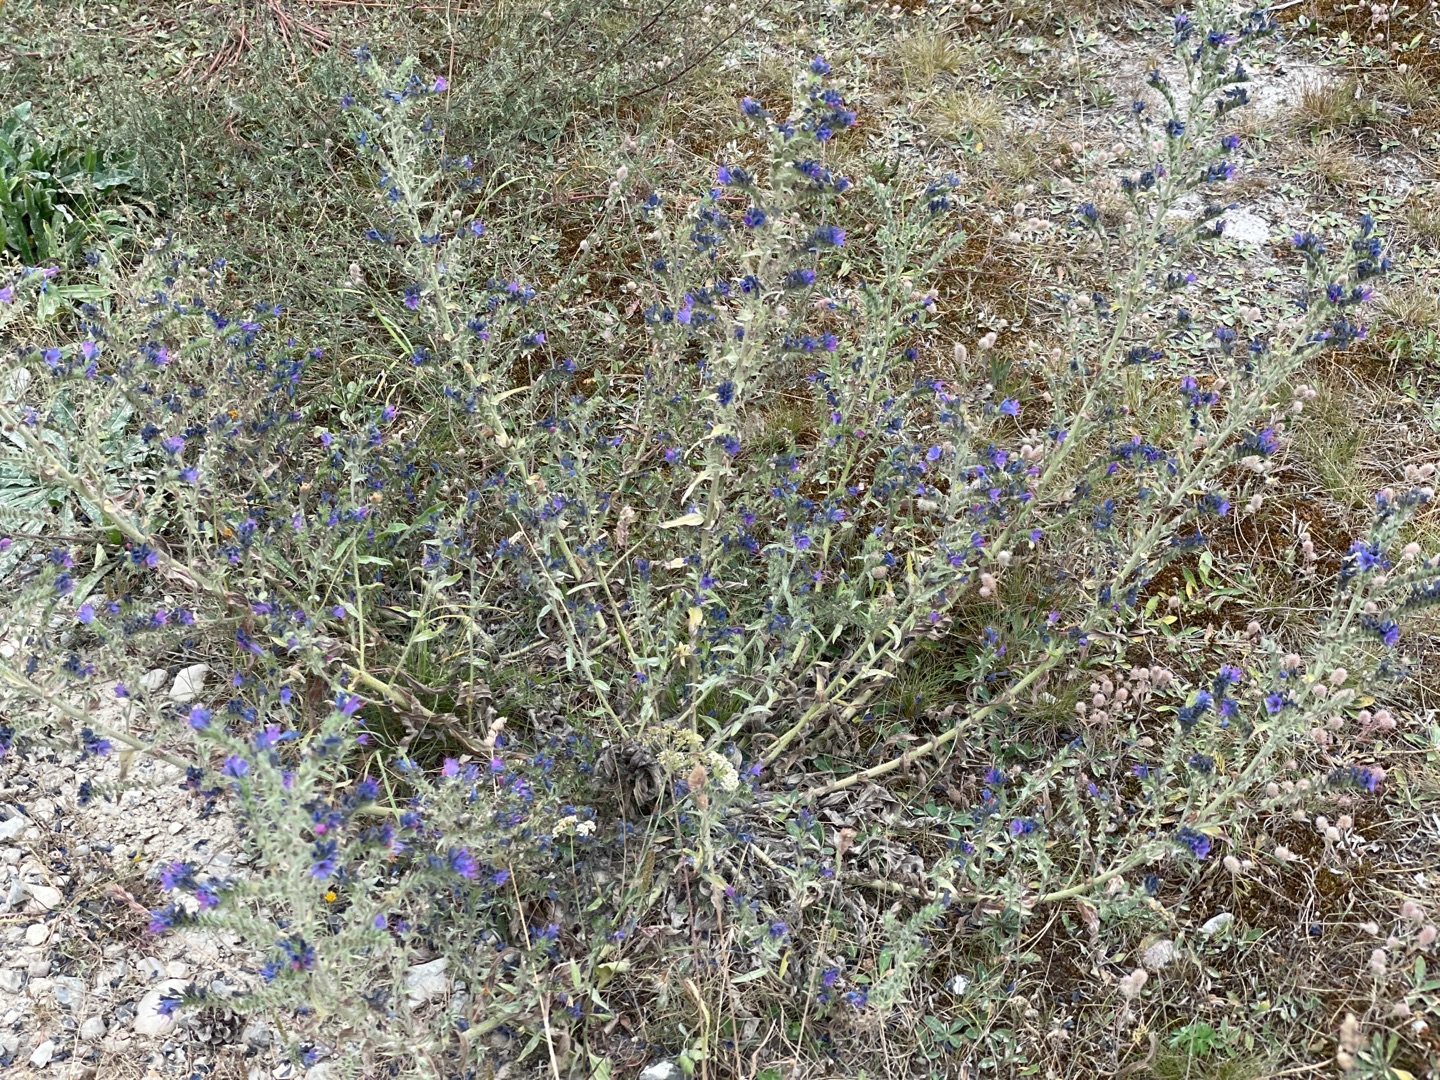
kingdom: Plantae
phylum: Tracheophyta
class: Magnoliopsida
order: Boraginales
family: Boraginaceae
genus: Echium
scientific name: Echium vulgare
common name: Slangehoved
